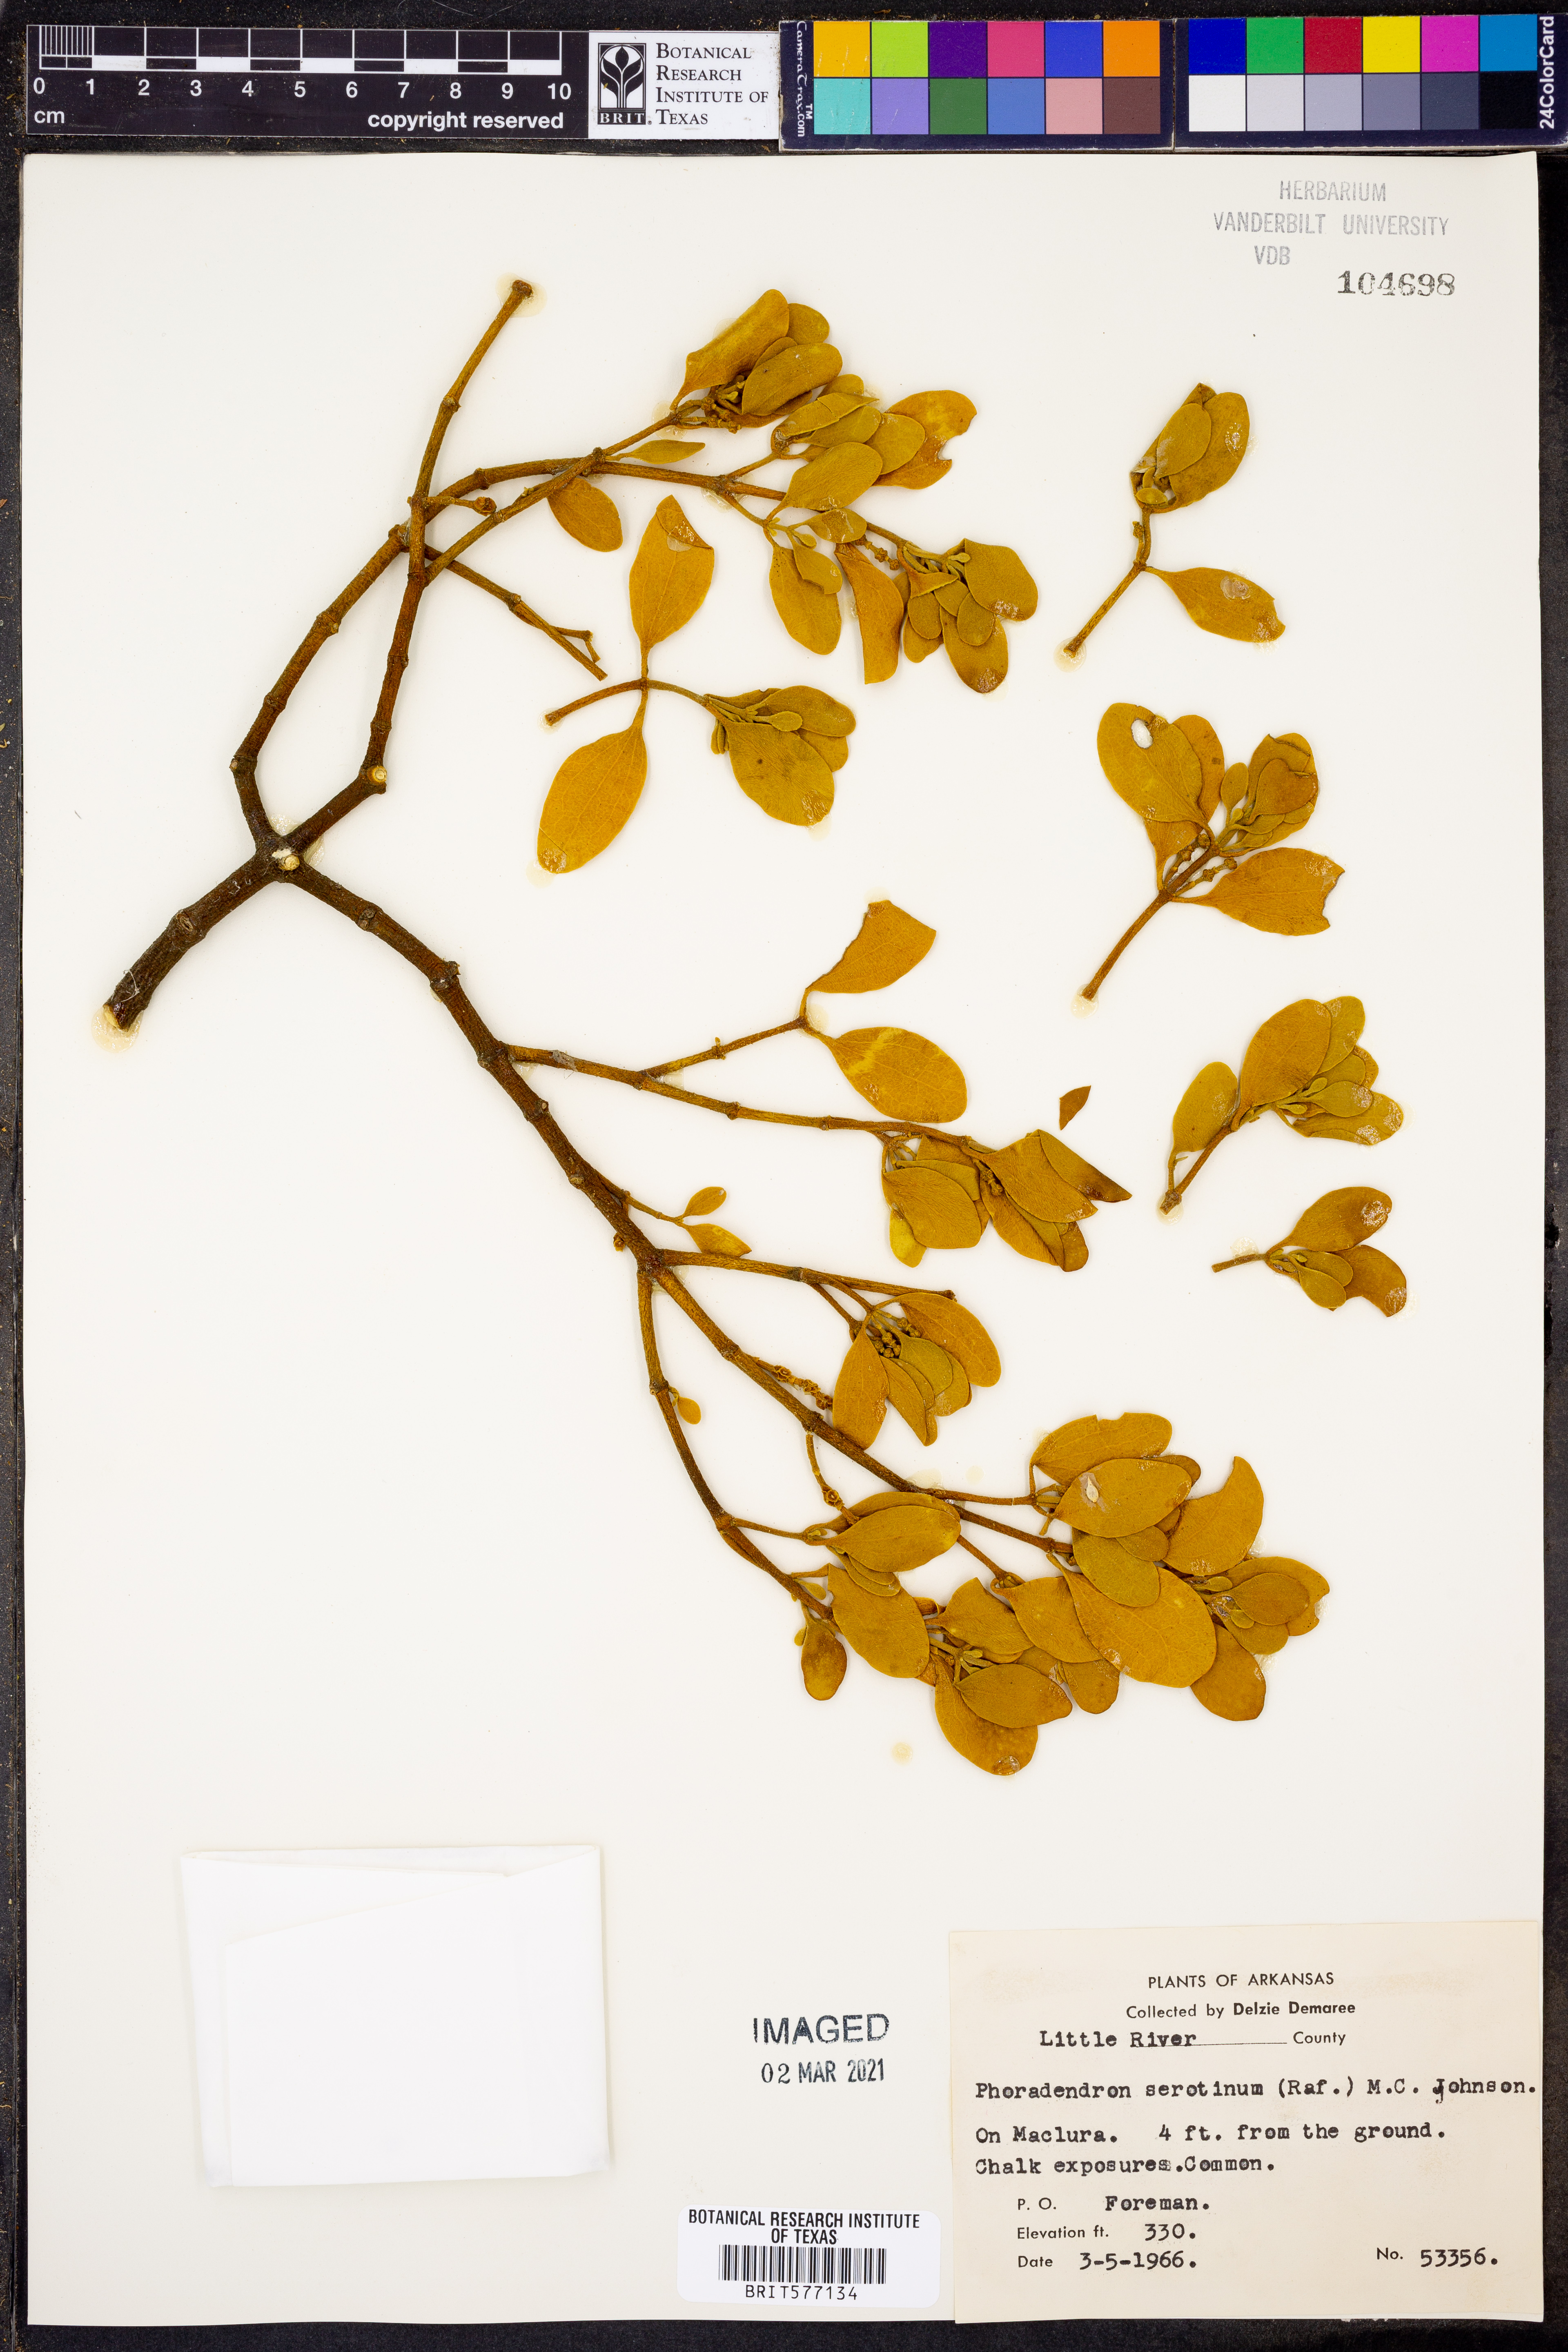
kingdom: Plantae
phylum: Tracheophyta
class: Magnoliopsida
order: Santalales
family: Viscaceae
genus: Phoradendron
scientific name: Phoradendron leucarpum
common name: Pacific mistletoe
